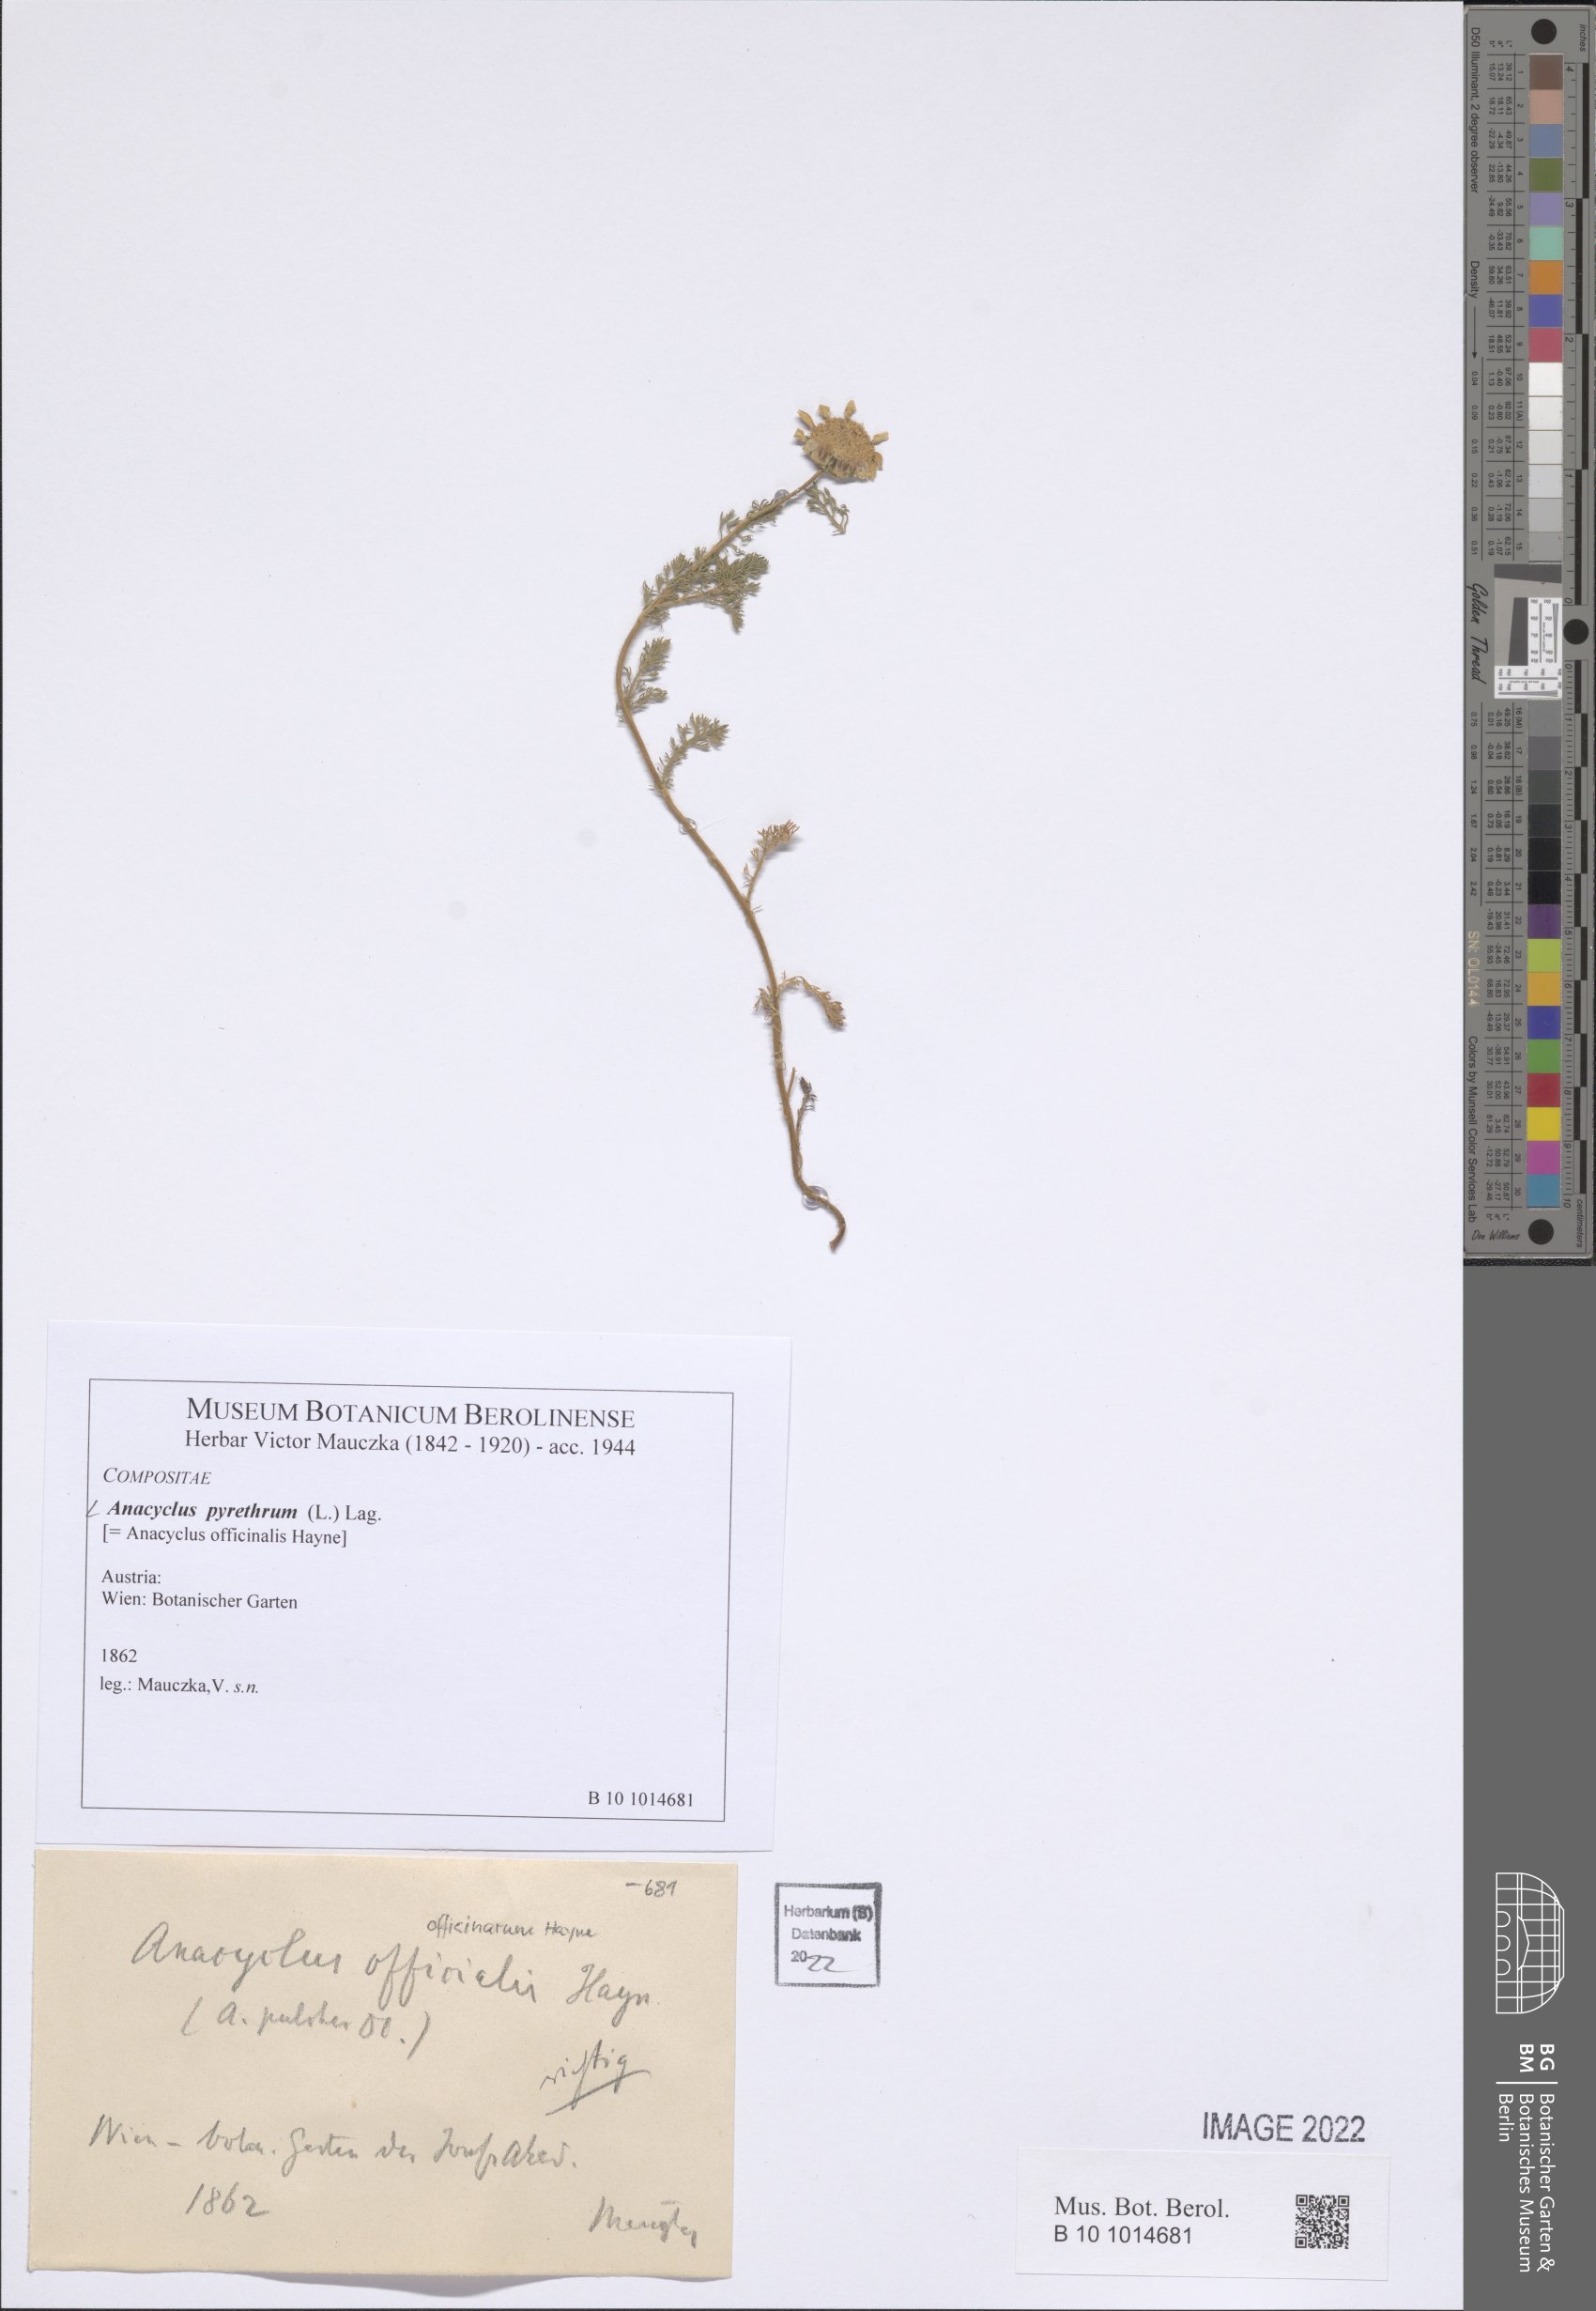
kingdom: Plantae
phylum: Tracheophyta
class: Magnoliopsida
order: Asterales
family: Asteraceae
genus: Anacyclus
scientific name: Anacyclus pyrethrum
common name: Mt. atlas daisy
